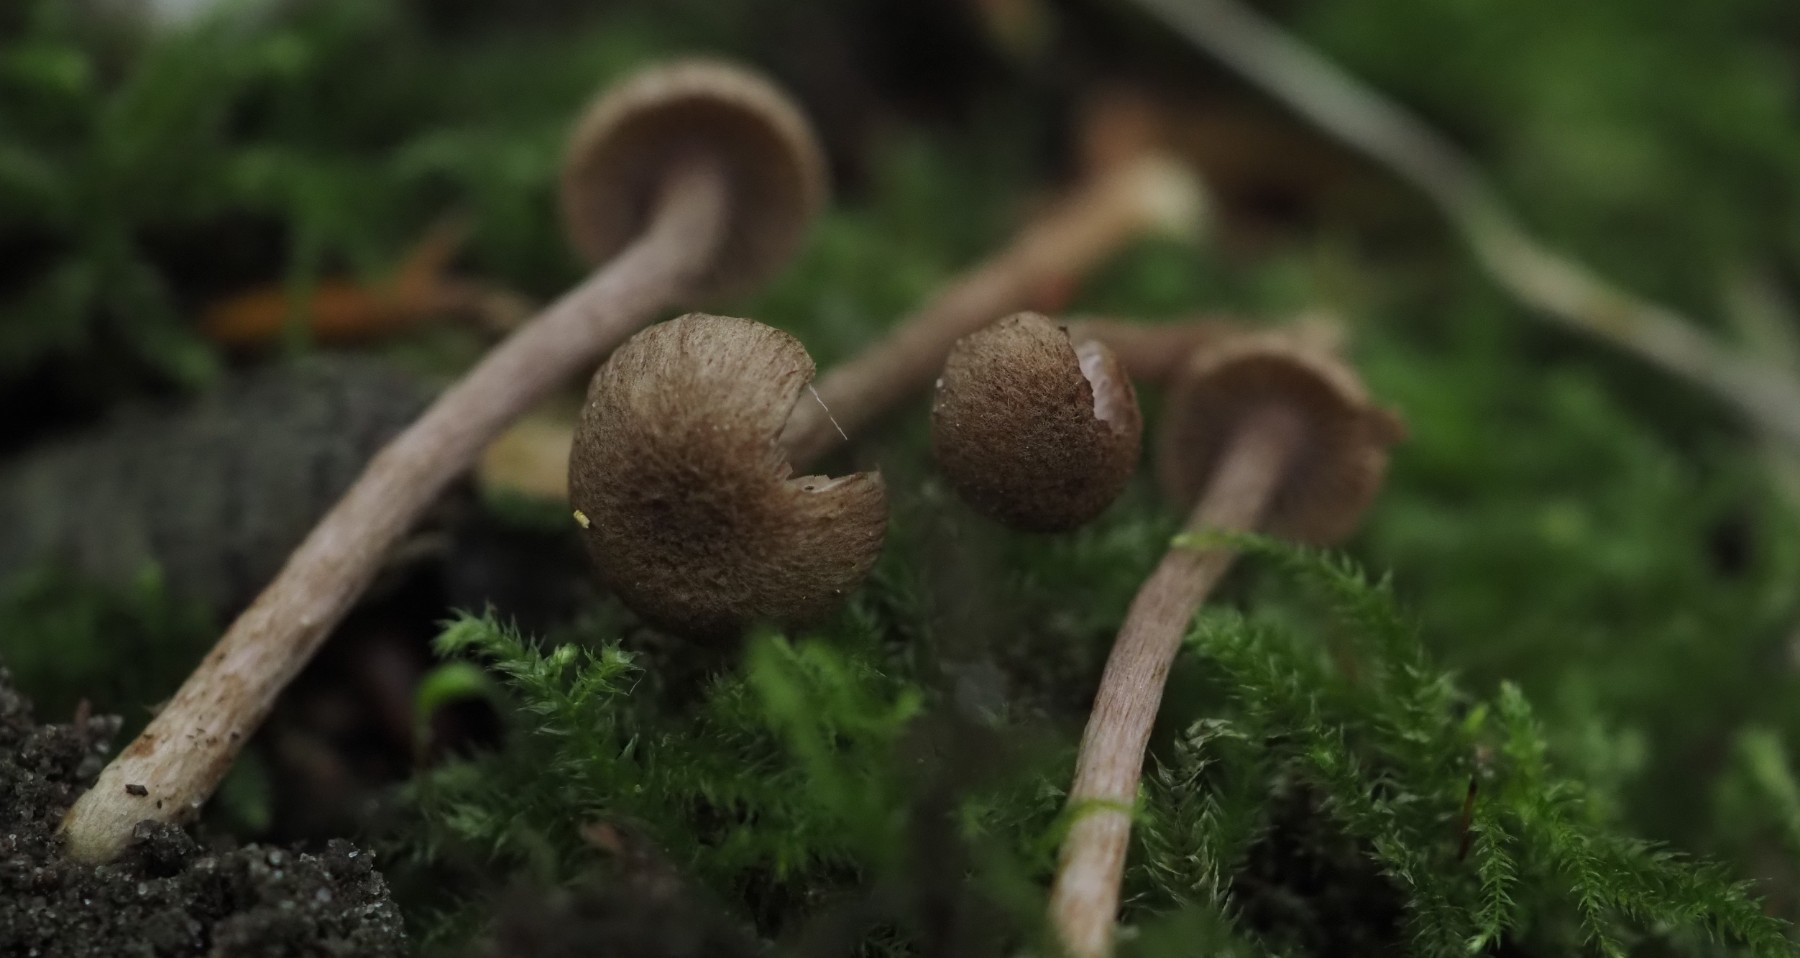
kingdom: Fungi
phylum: Basidiomycota
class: Agaricomycetes
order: Agaricales
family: Inocybaceae
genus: Inocybe
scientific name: Inocybe cincinnata
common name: lillabladet trævlhat
